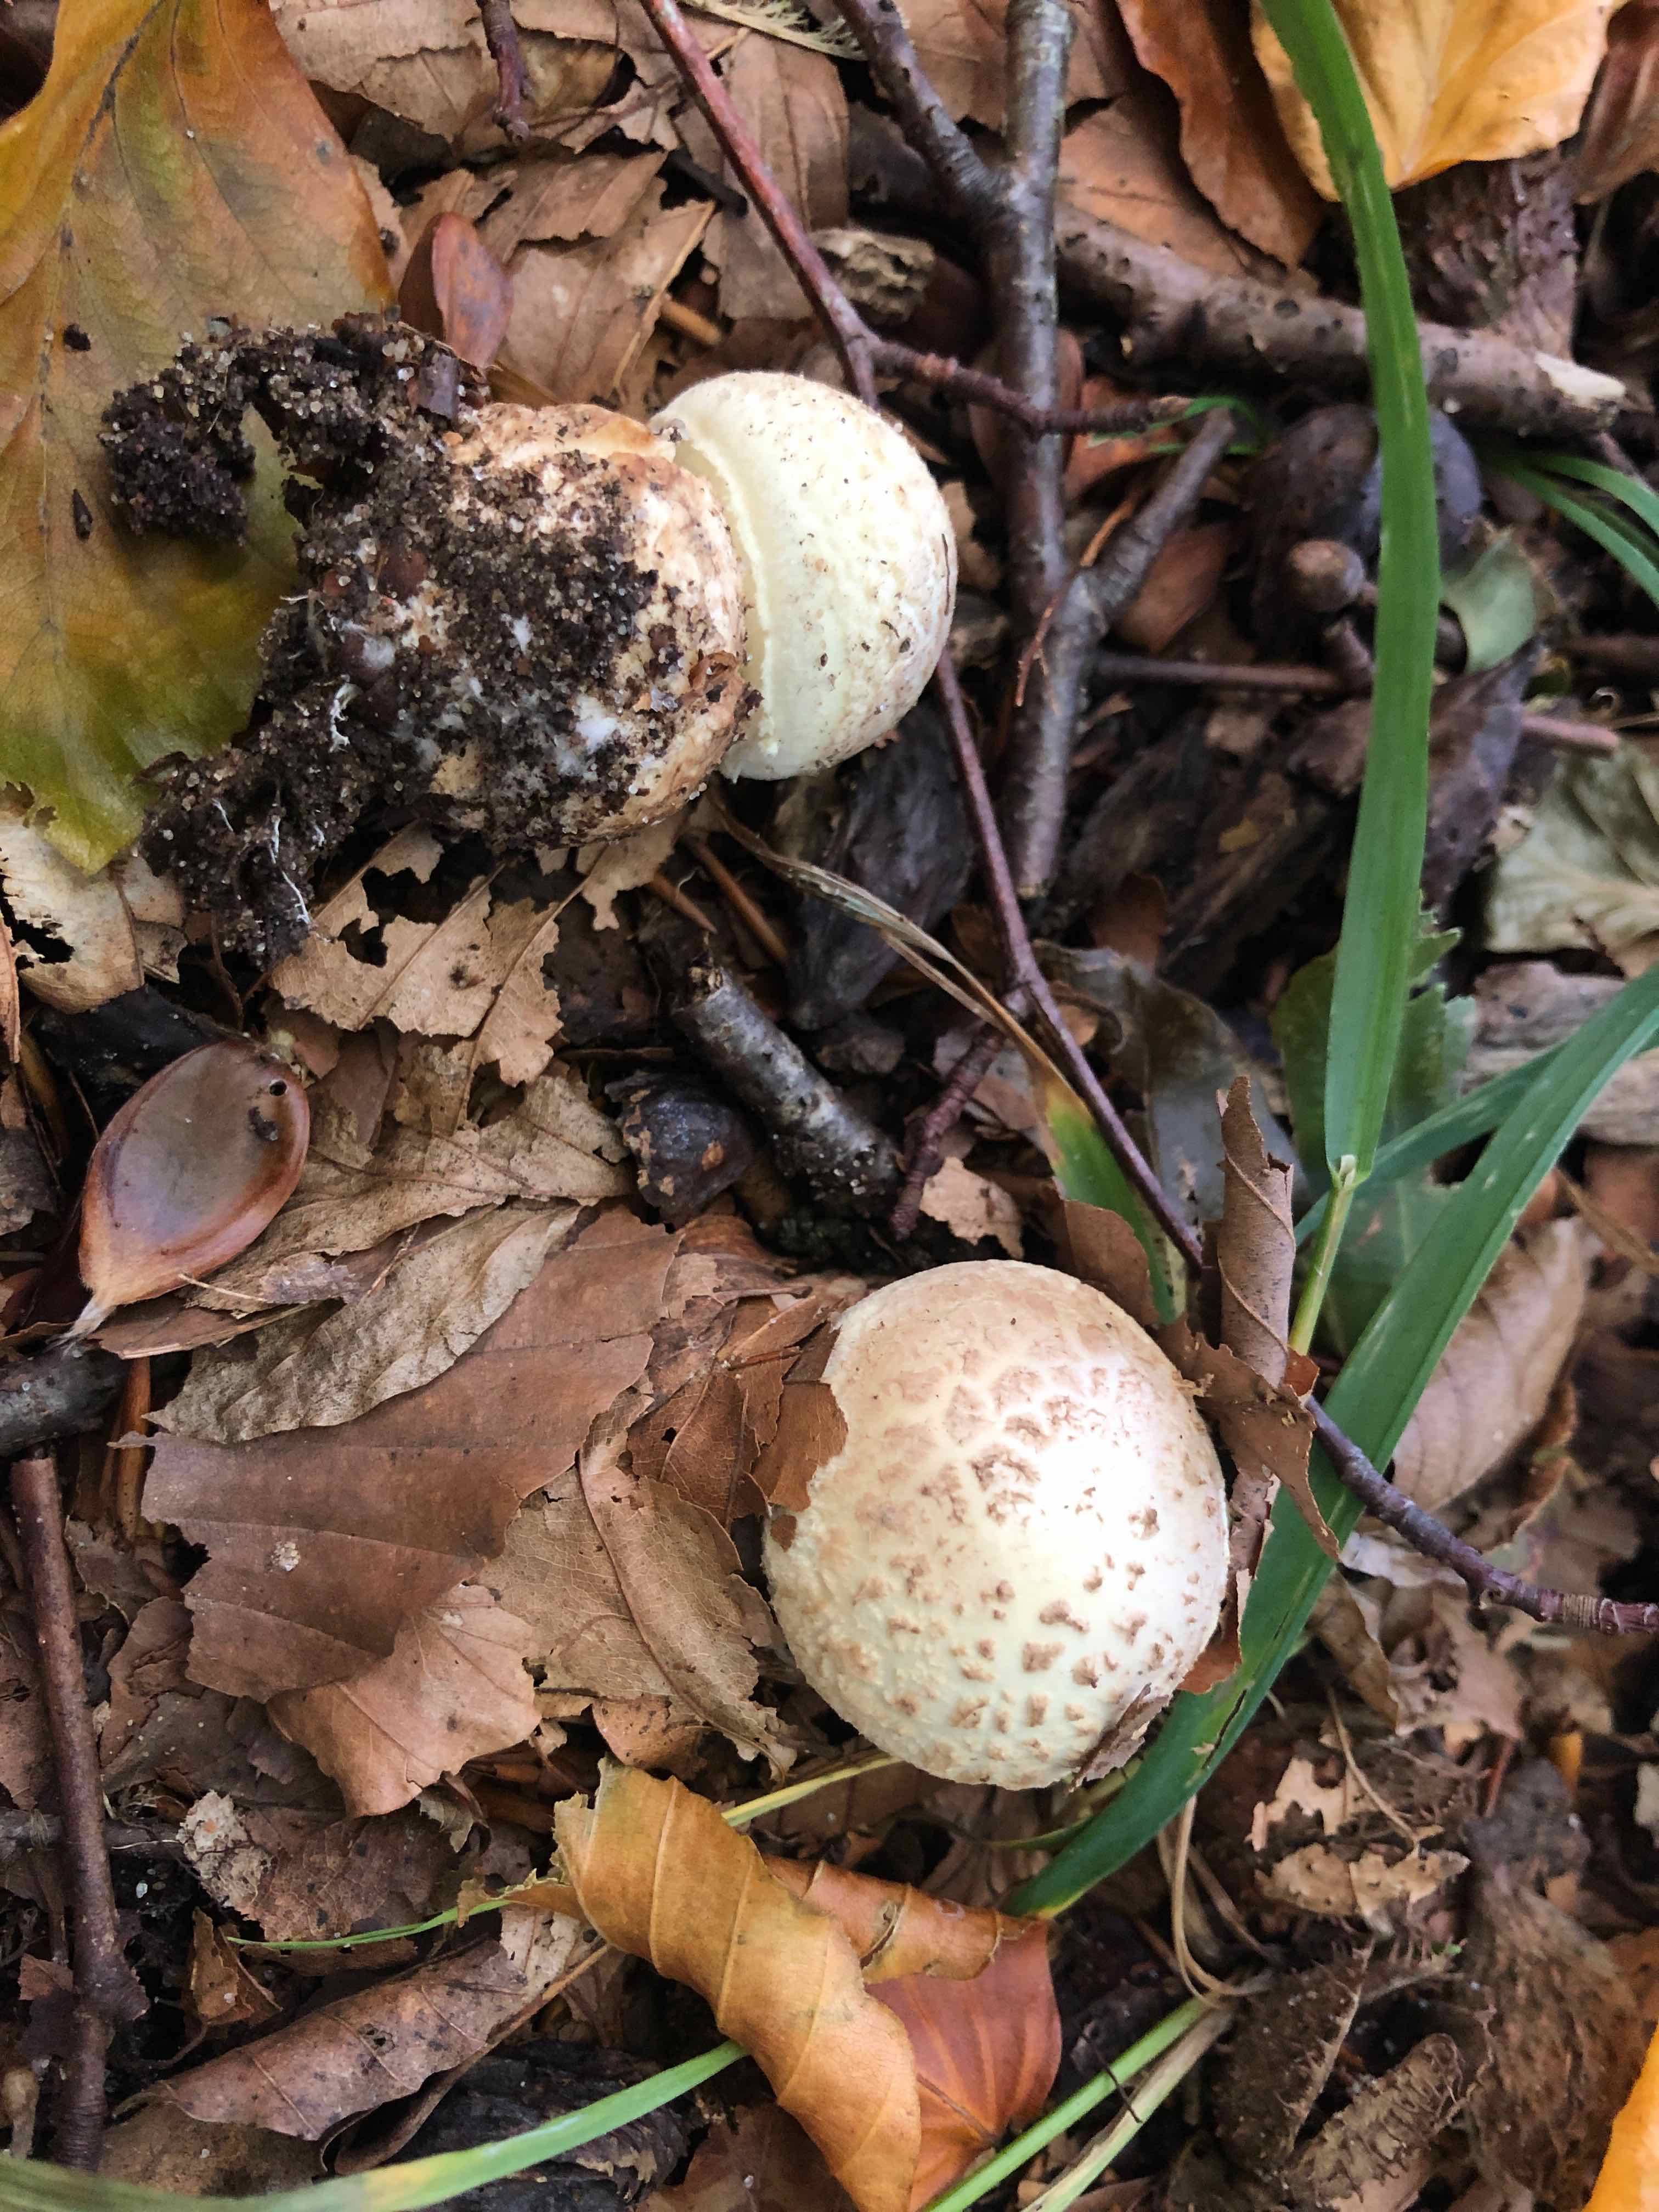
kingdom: Fungi
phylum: Basidiomycota
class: Agaricomycetes
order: Agaricales
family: Amanitaceae
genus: Amanita
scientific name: Amanita citrina
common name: kugleknoldet fluesvamp
